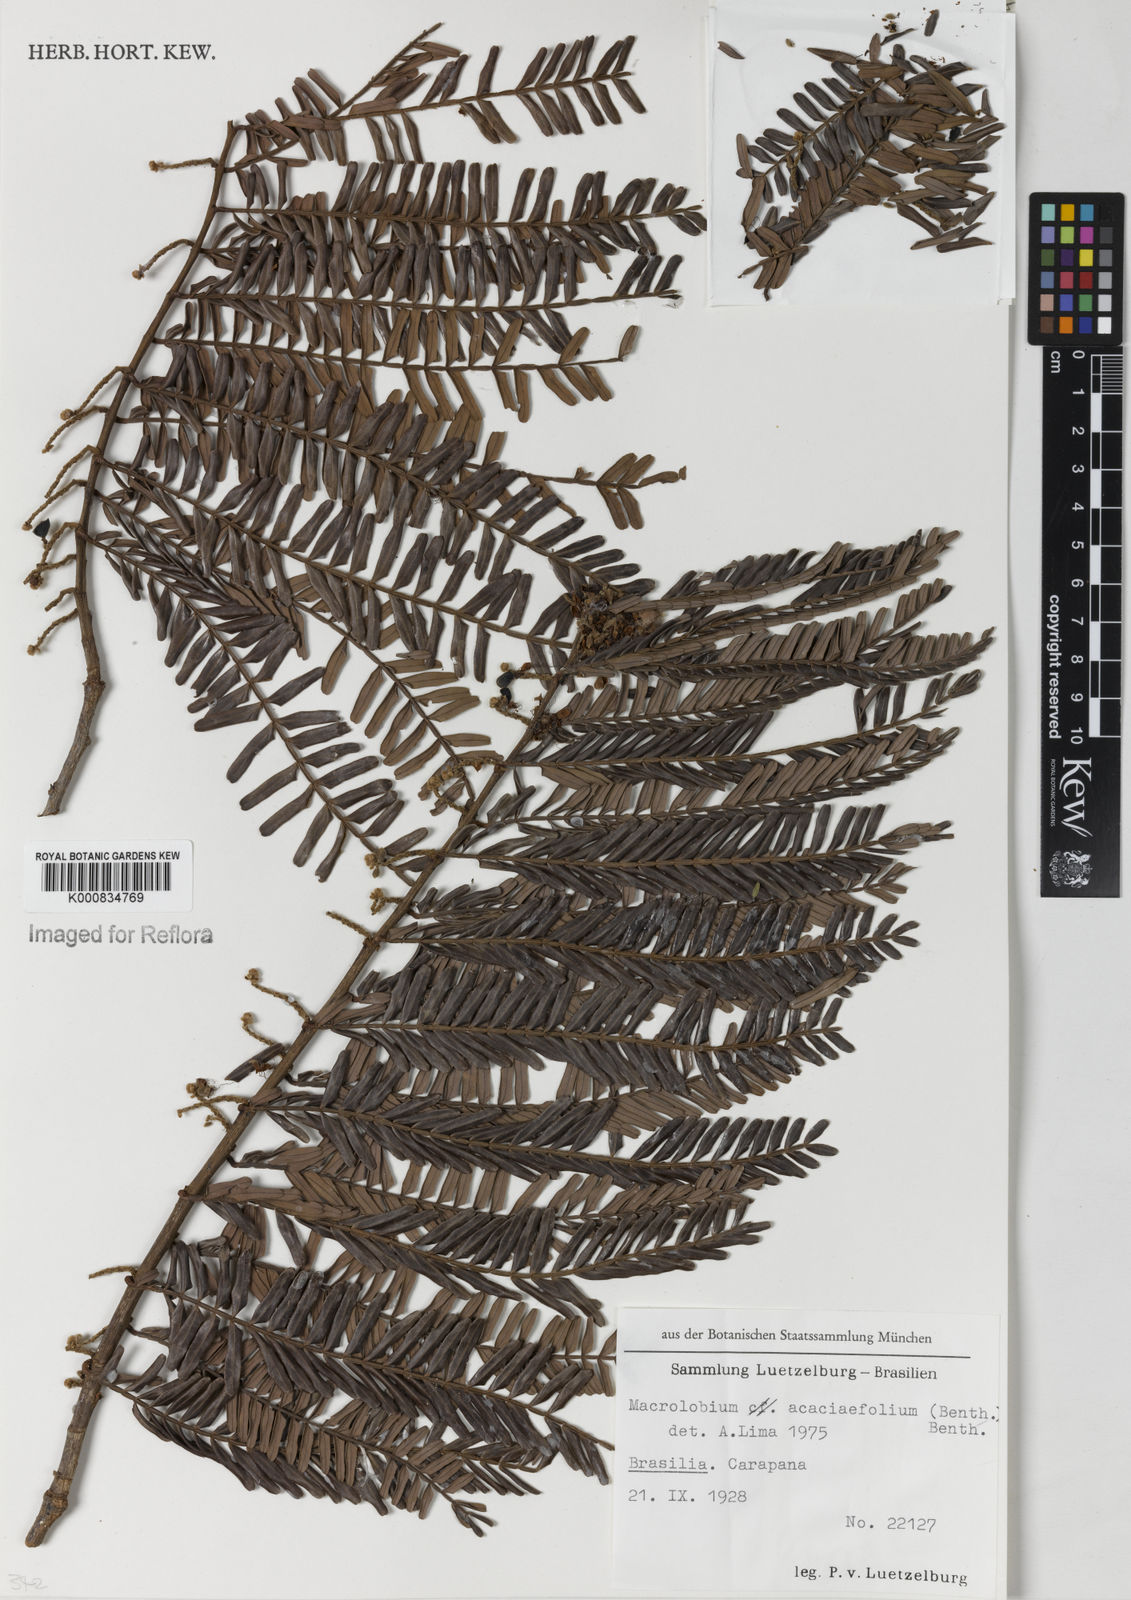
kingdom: Plantae
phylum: Tracheophyta
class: Magnoliopsida
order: Fabales
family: Fabaceae
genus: Macrolobium
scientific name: Macrolobium acaciifolium
